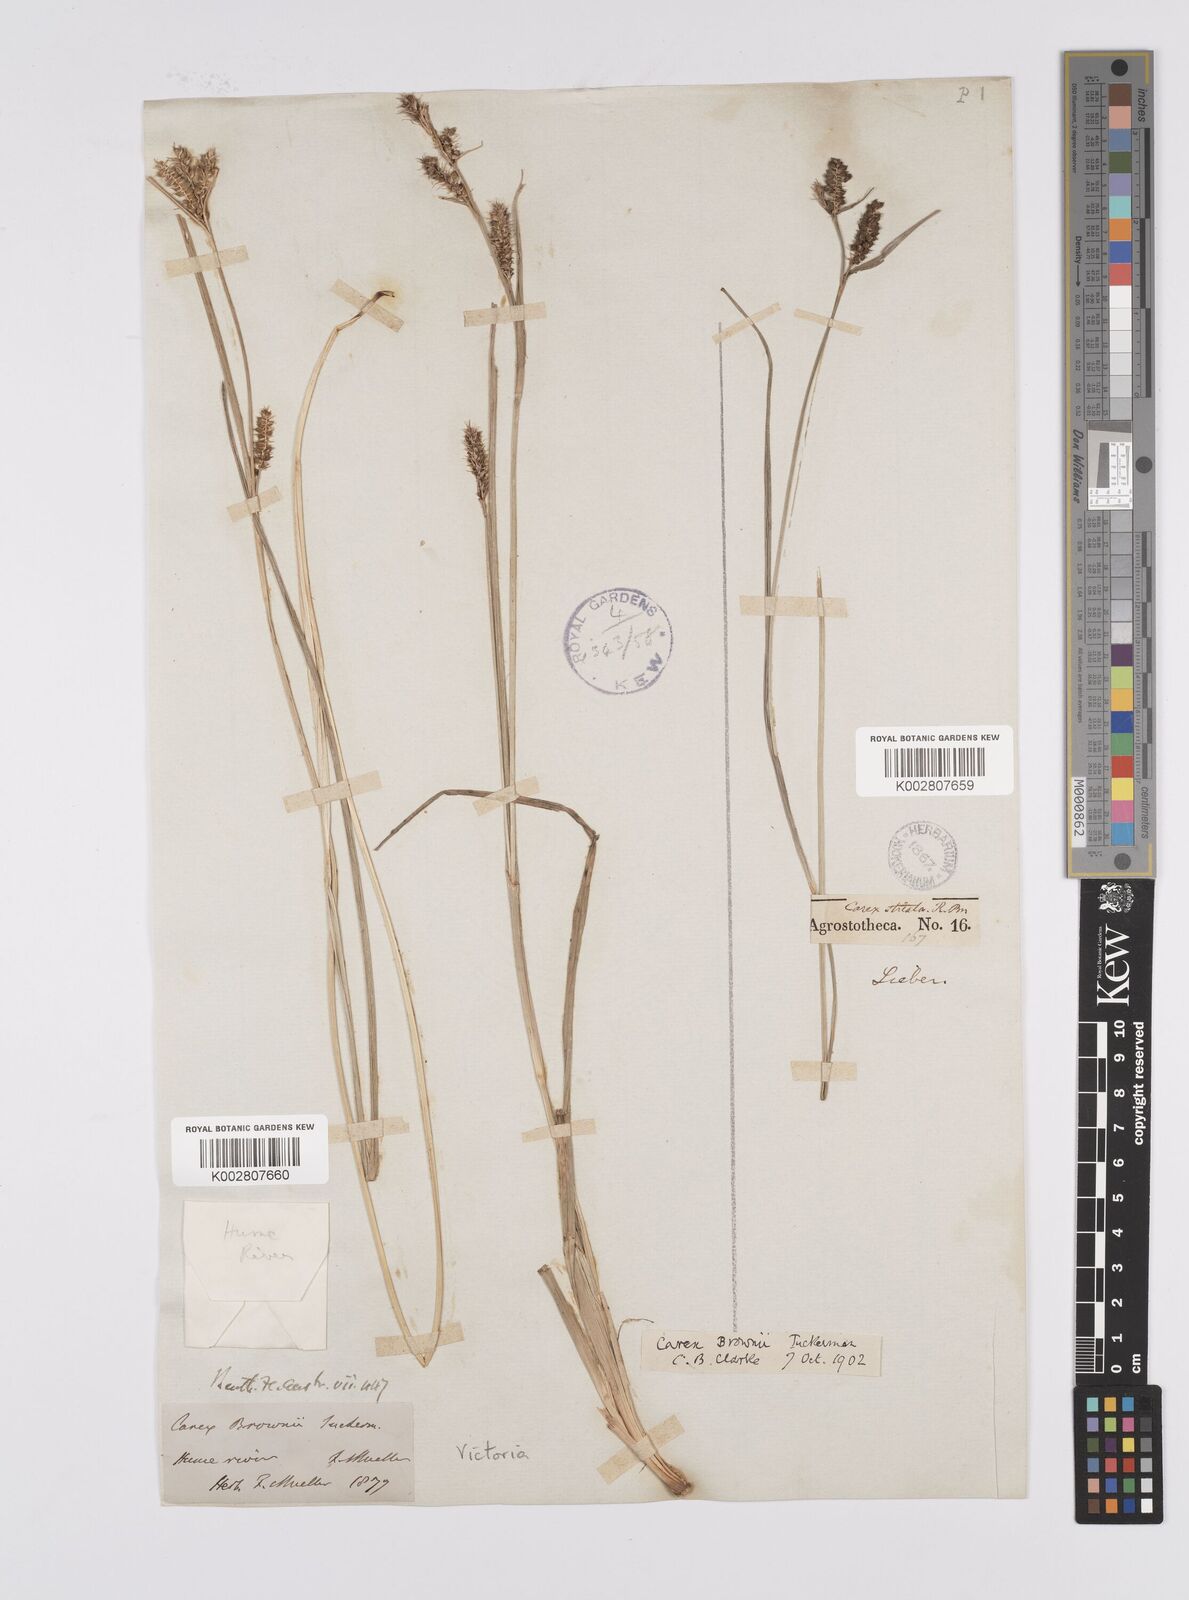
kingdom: Plantae
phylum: Tracheophyta
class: Liliopsida
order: Poales
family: Cyperaceae
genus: Carex
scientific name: Carex brownii
